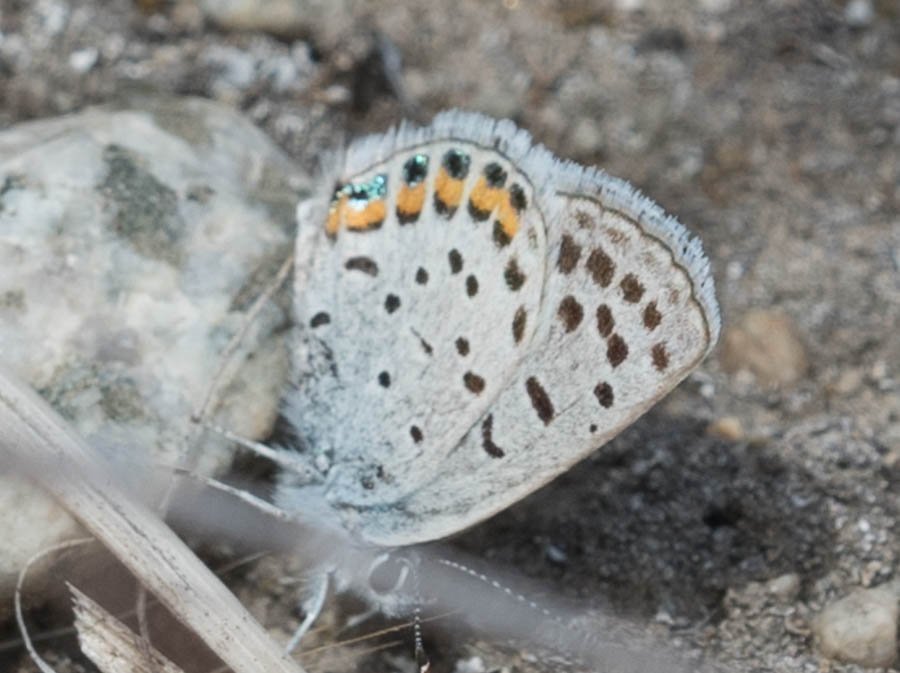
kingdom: Animalia
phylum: Arthropoda
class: Insecta
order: Lepidoptera
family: Lycaenidae
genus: Plebejus
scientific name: Plebejus lupini
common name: Lupine Blue
